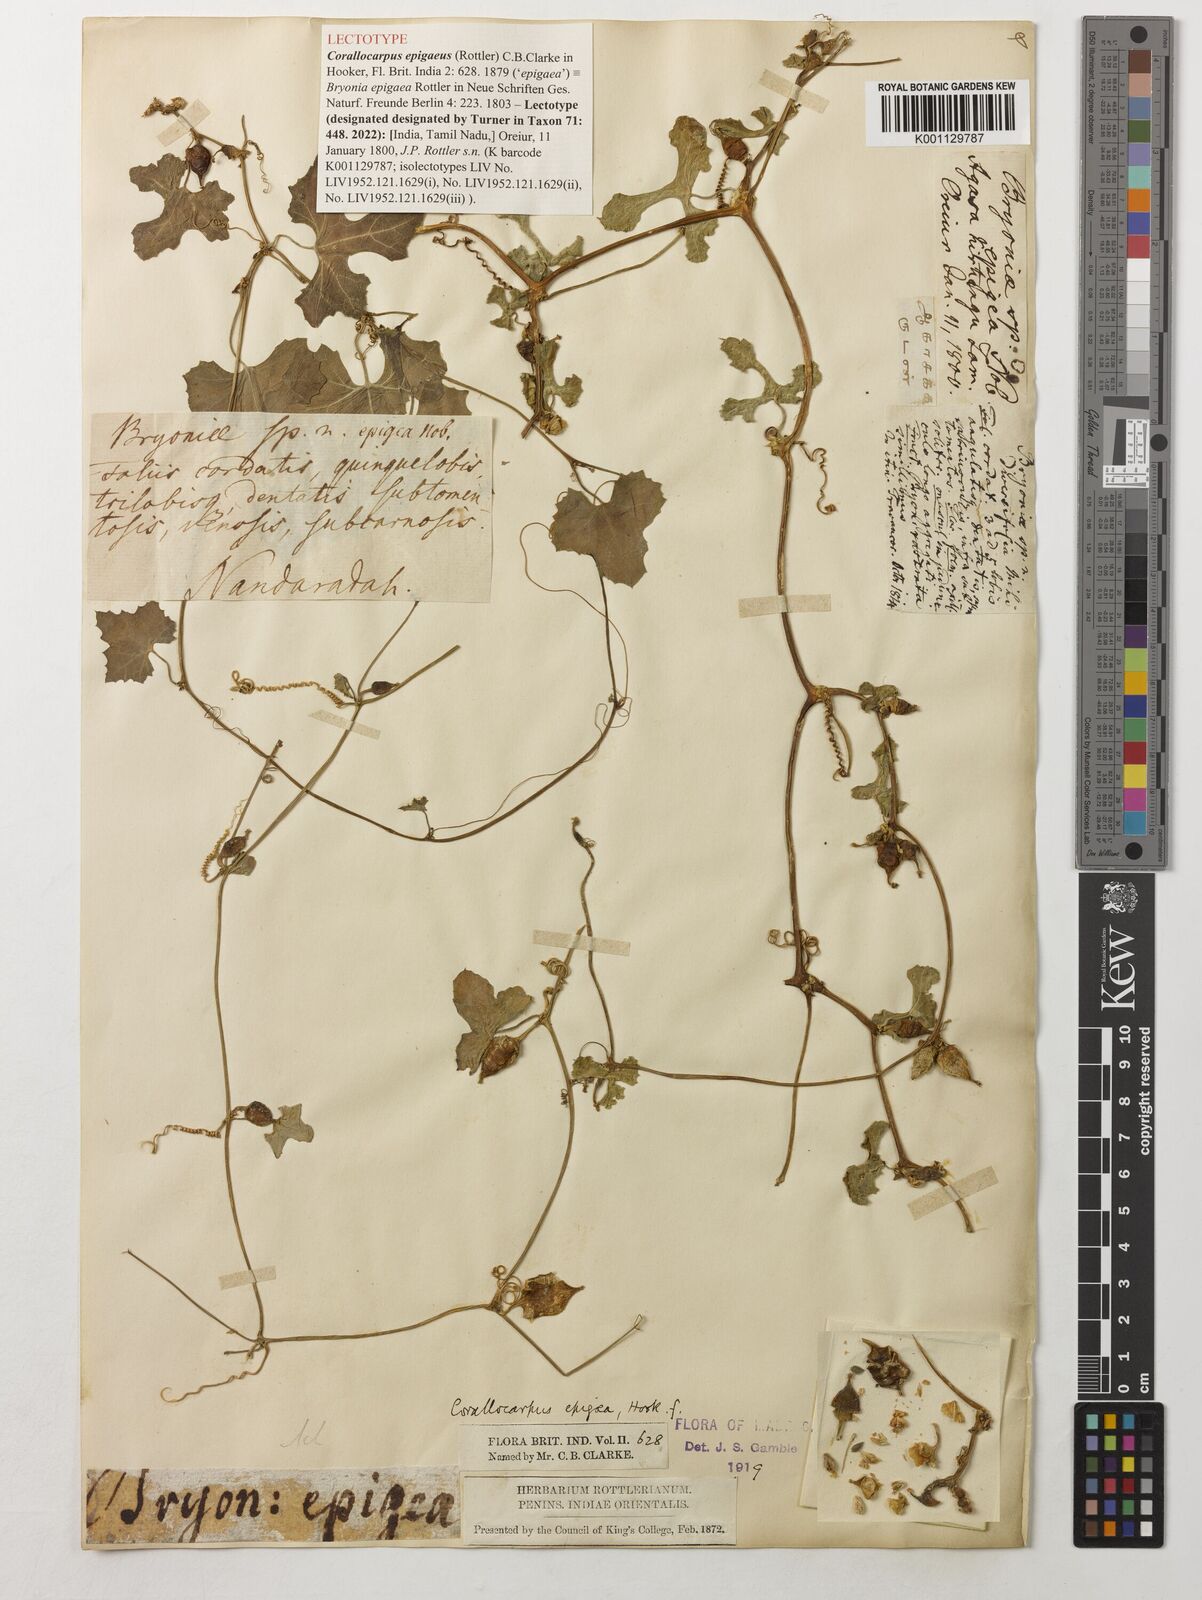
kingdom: Plantae
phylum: Tracheophyta
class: Magnoliopsida
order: Cucurbitales
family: Cucurbitaceae
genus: Corallocarpus
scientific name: Corallocarpus epigaeus
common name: Indian bryonia
